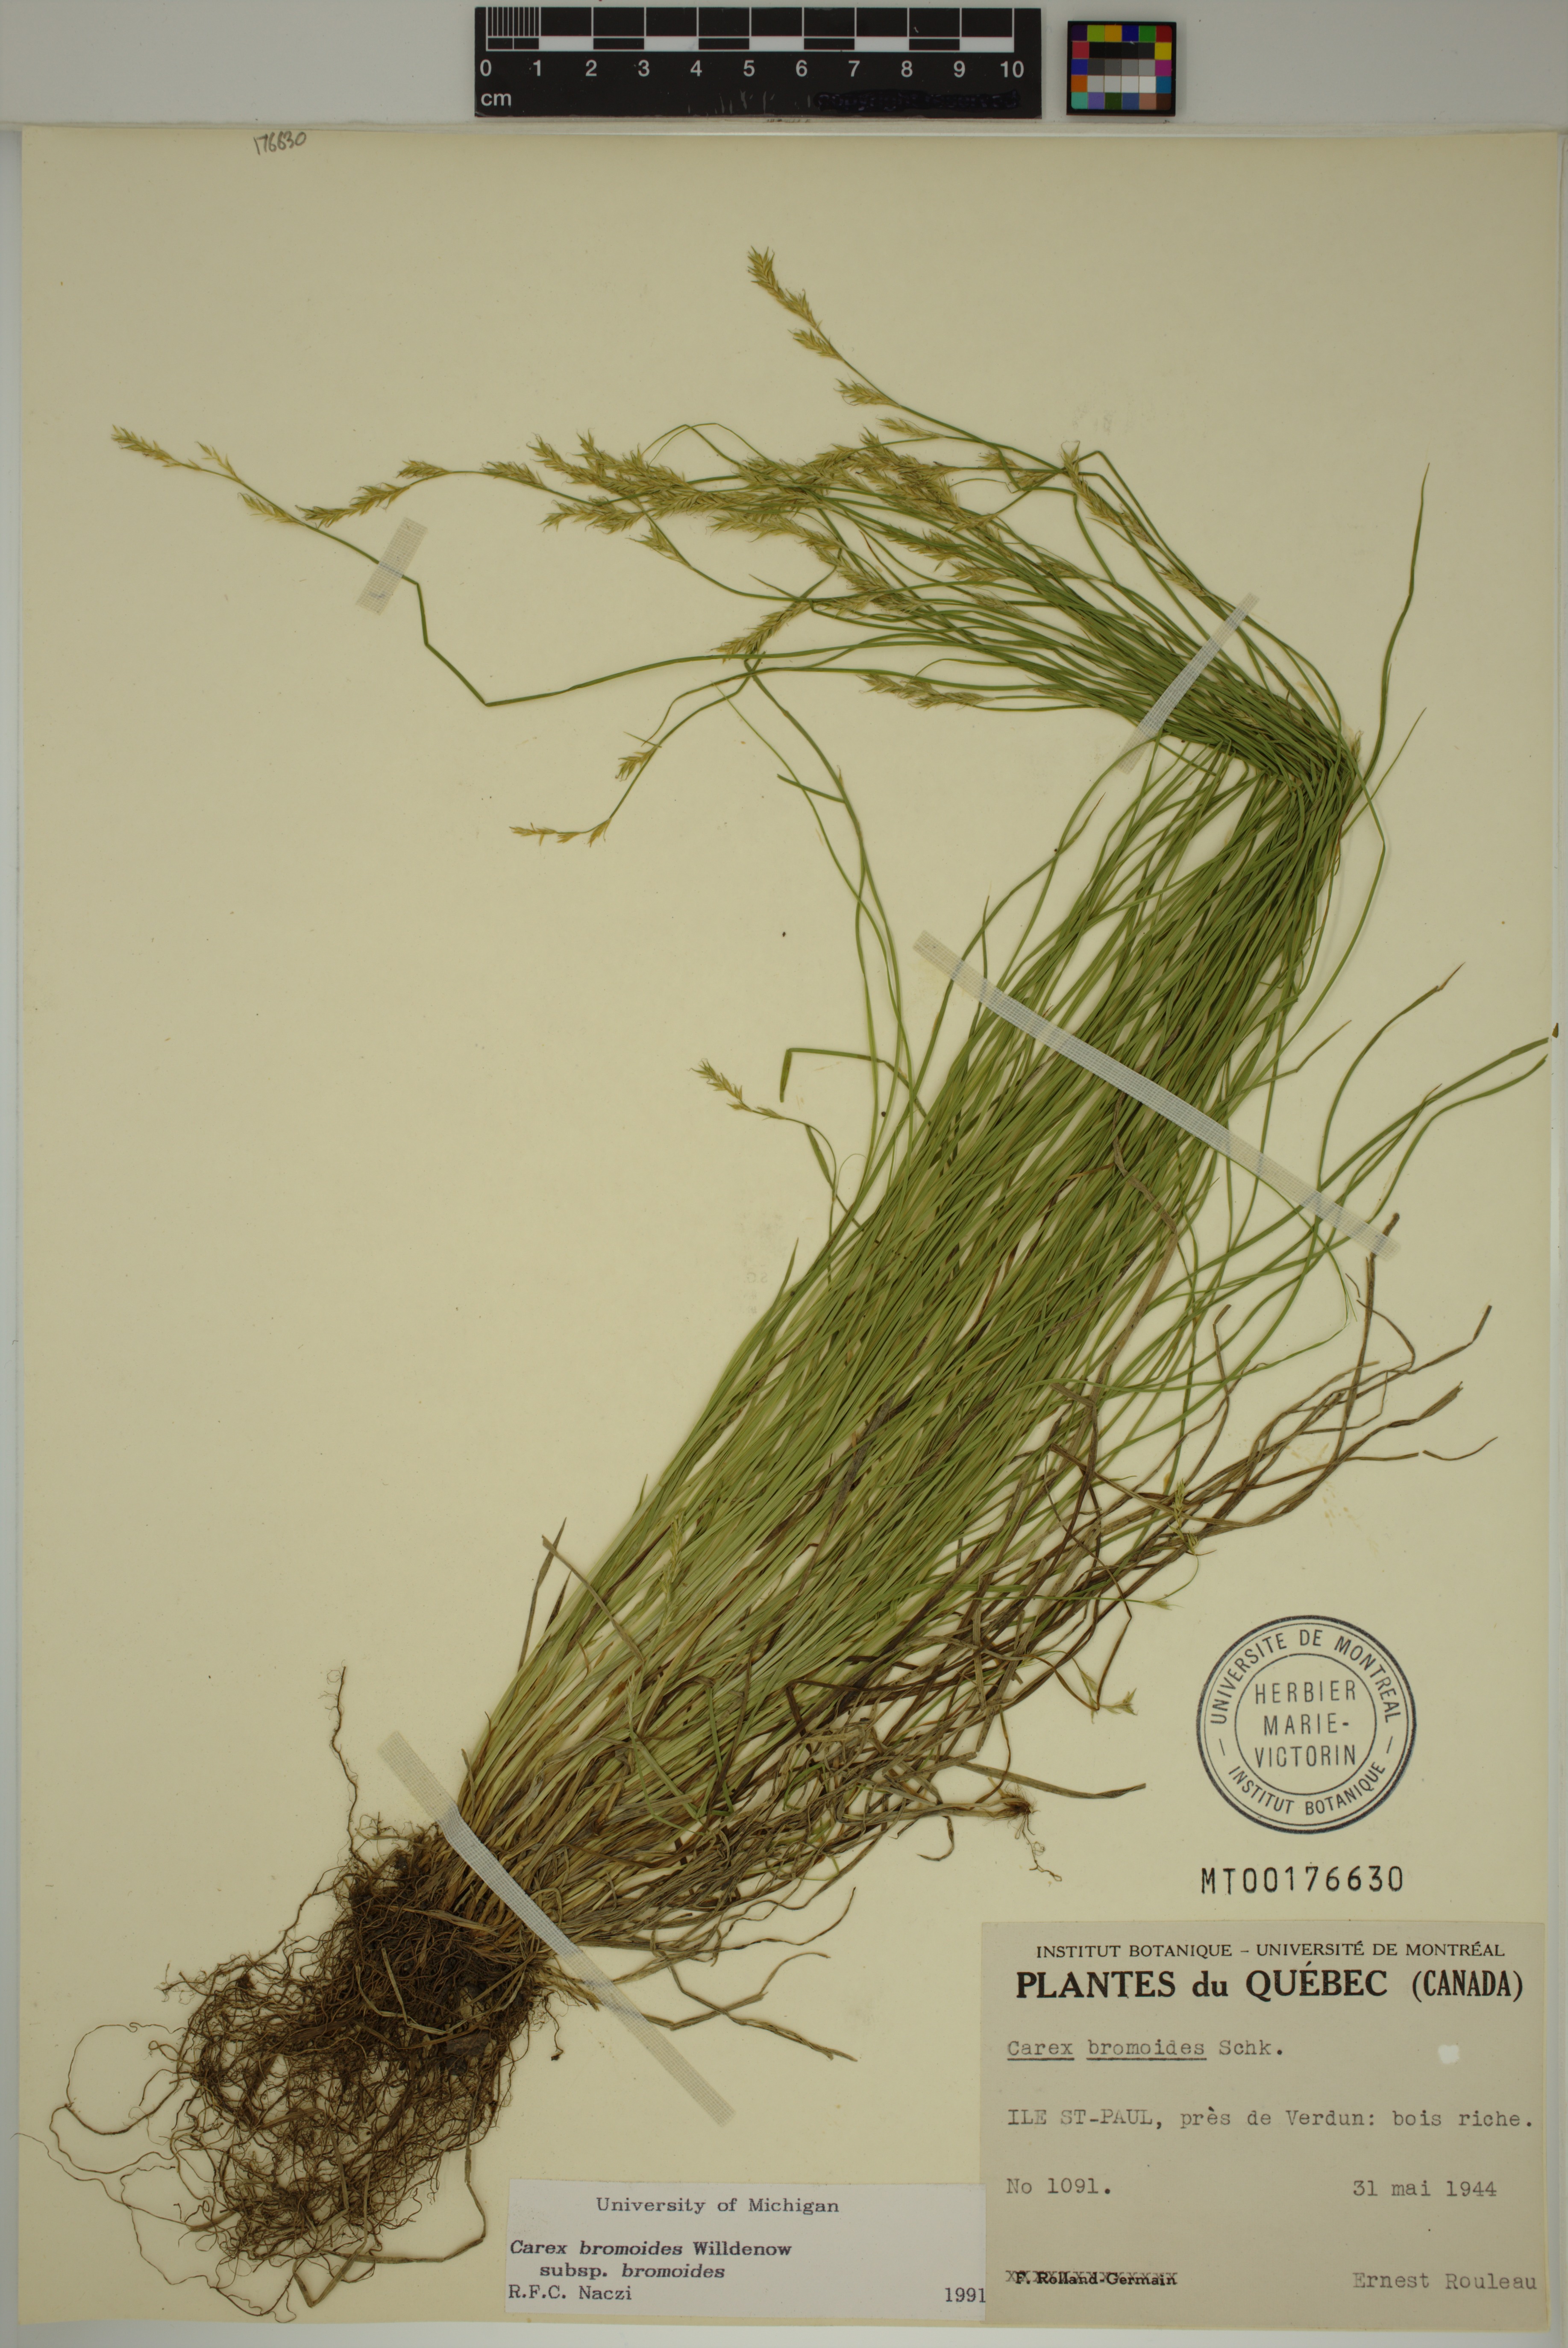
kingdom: Plantae
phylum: Tracheophyta
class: Liliopsida
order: Poales
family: Cyperaceae
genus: Carex
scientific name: Carex bromoides
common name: Brome hummock sedge
